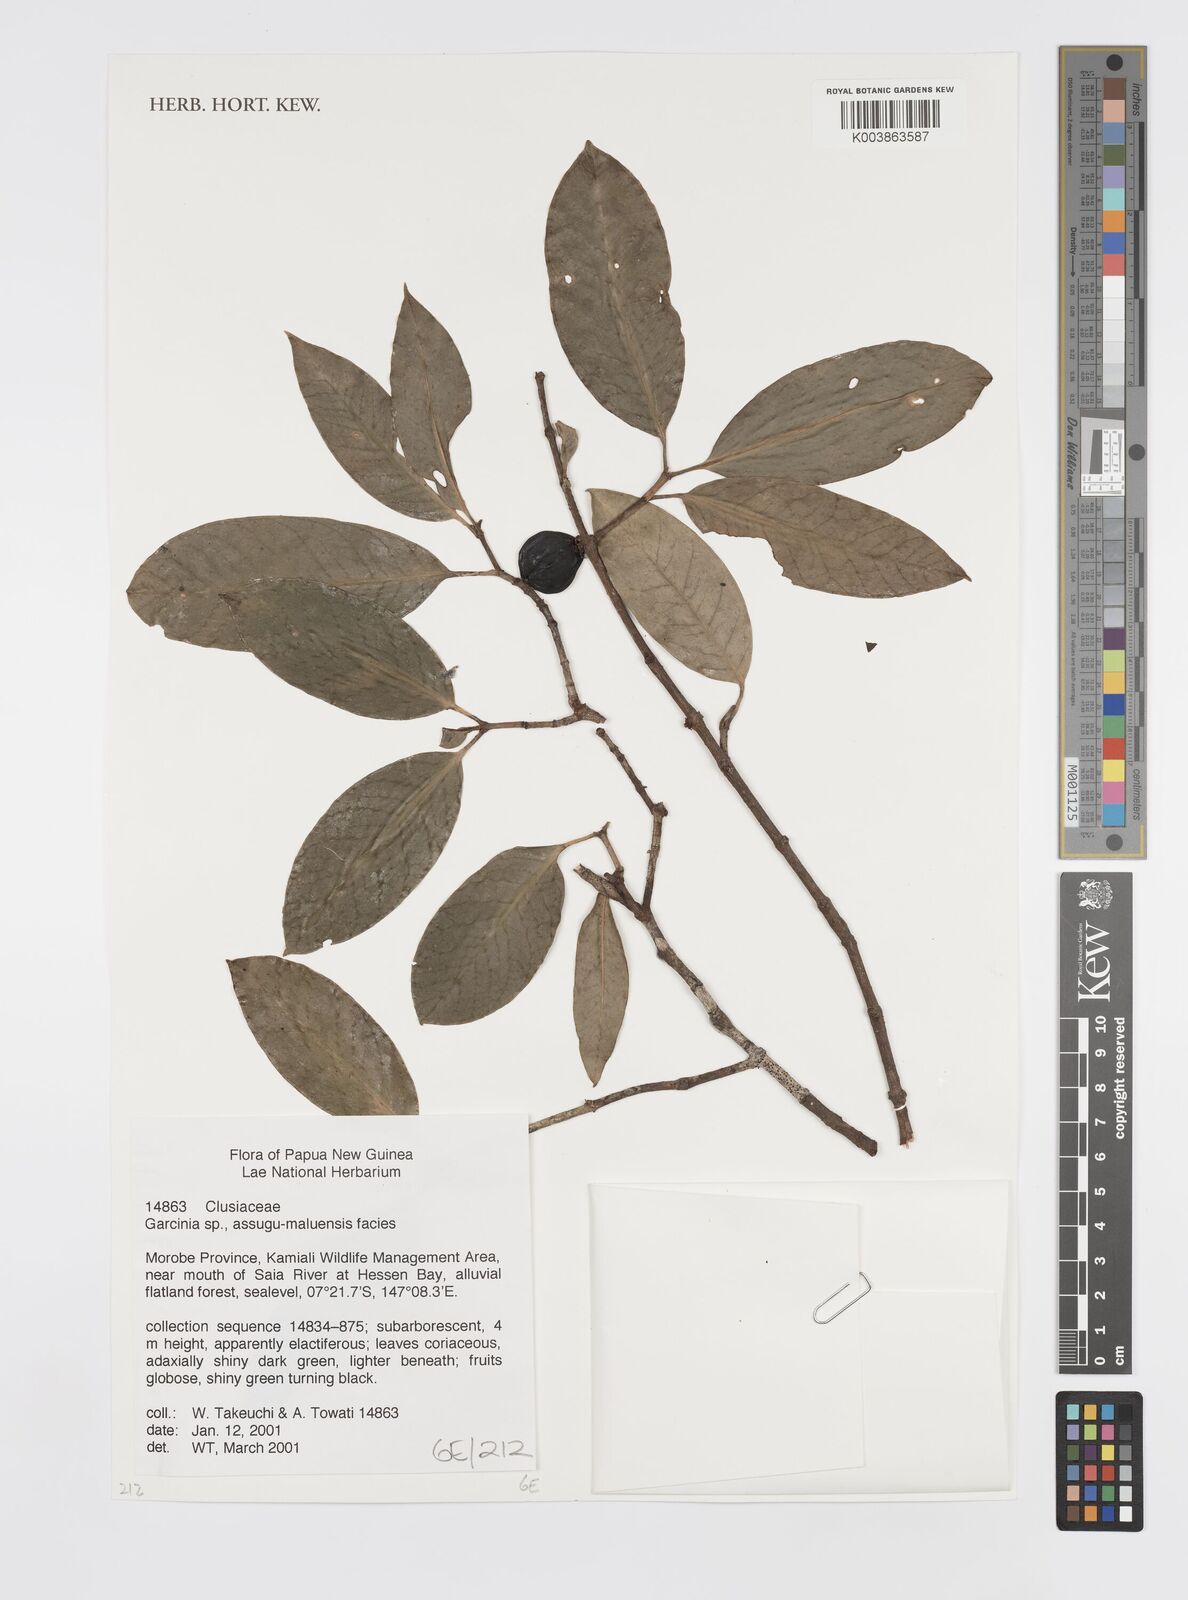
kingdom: Plantae
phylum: Tracheophyta
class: Magnoliopsida
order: Malpighiales
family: Clusiaceae
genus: Garcinia
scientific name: Garcinia
